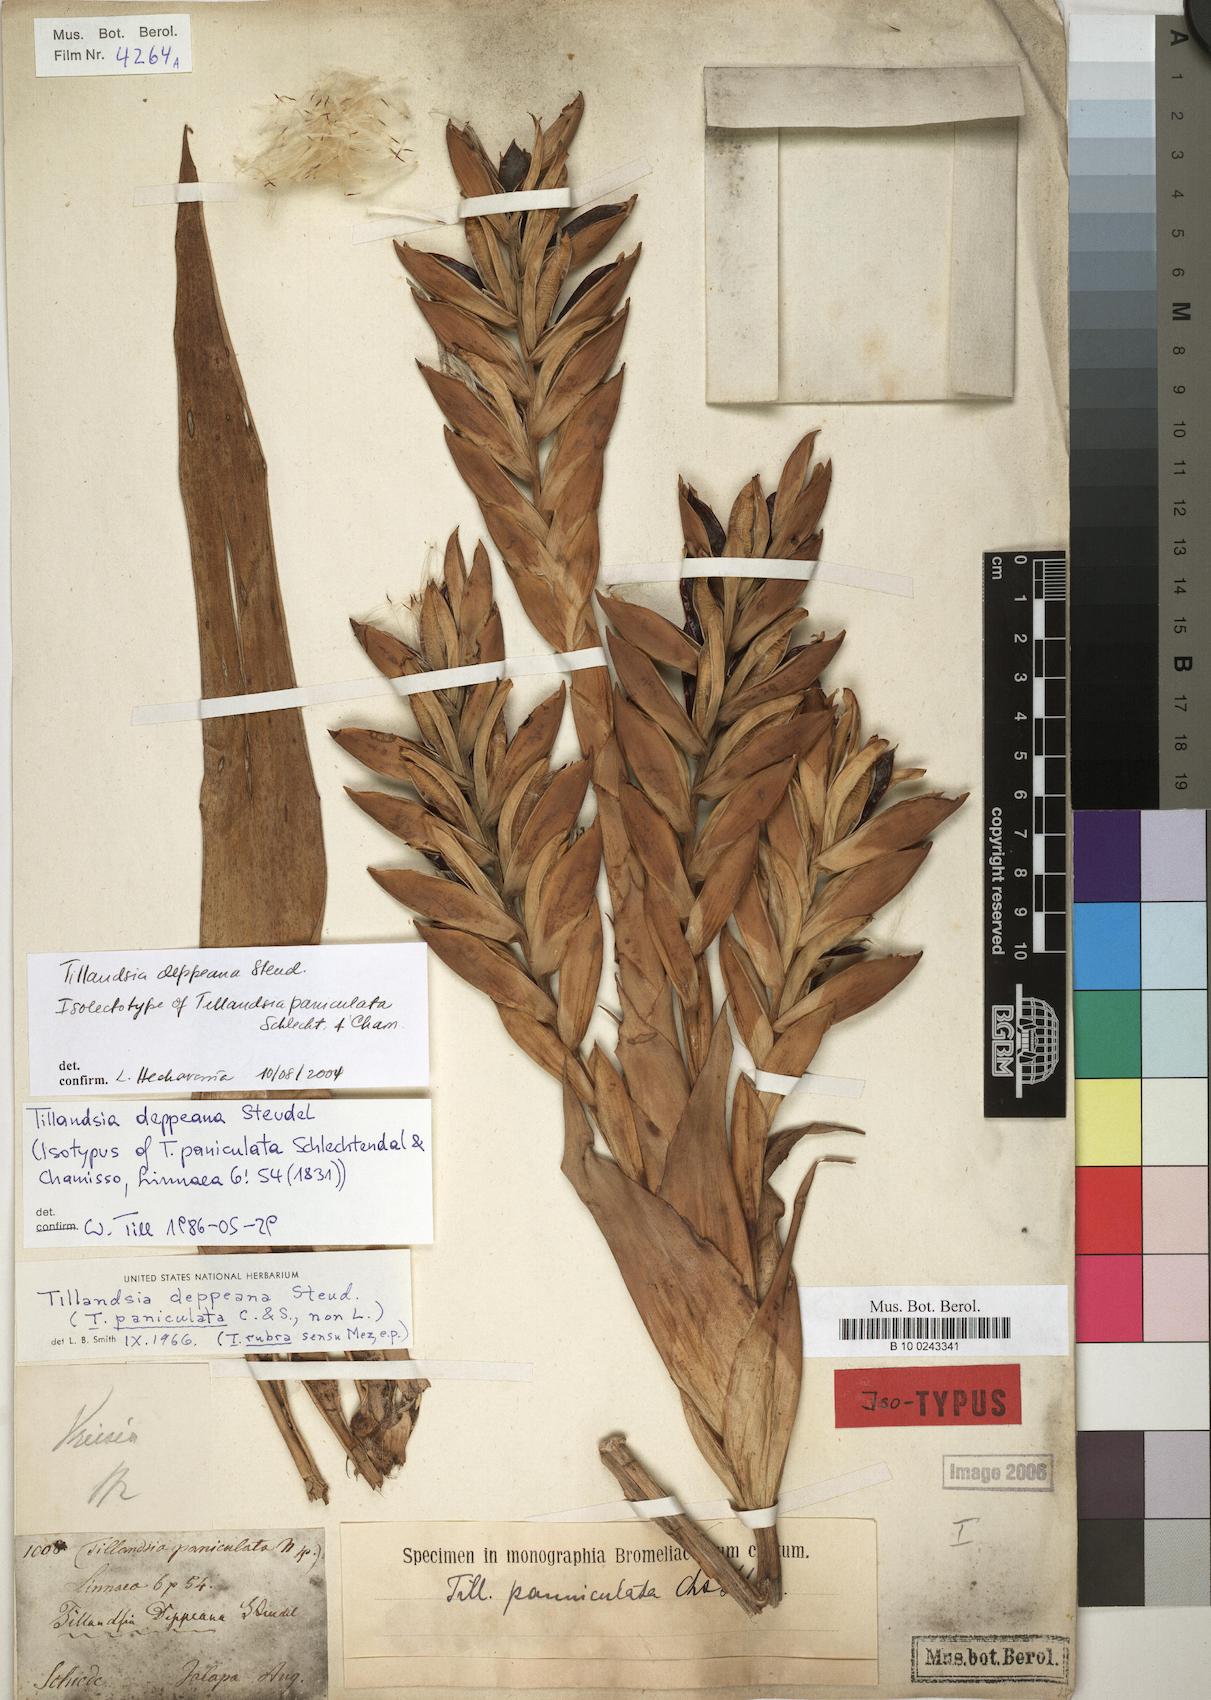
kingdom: Plantae
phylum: Tracheophyta
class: Liliopsida
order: Poales
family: Bromeliaceae
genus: Tillandsia
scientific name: Tillandsia deppeana
